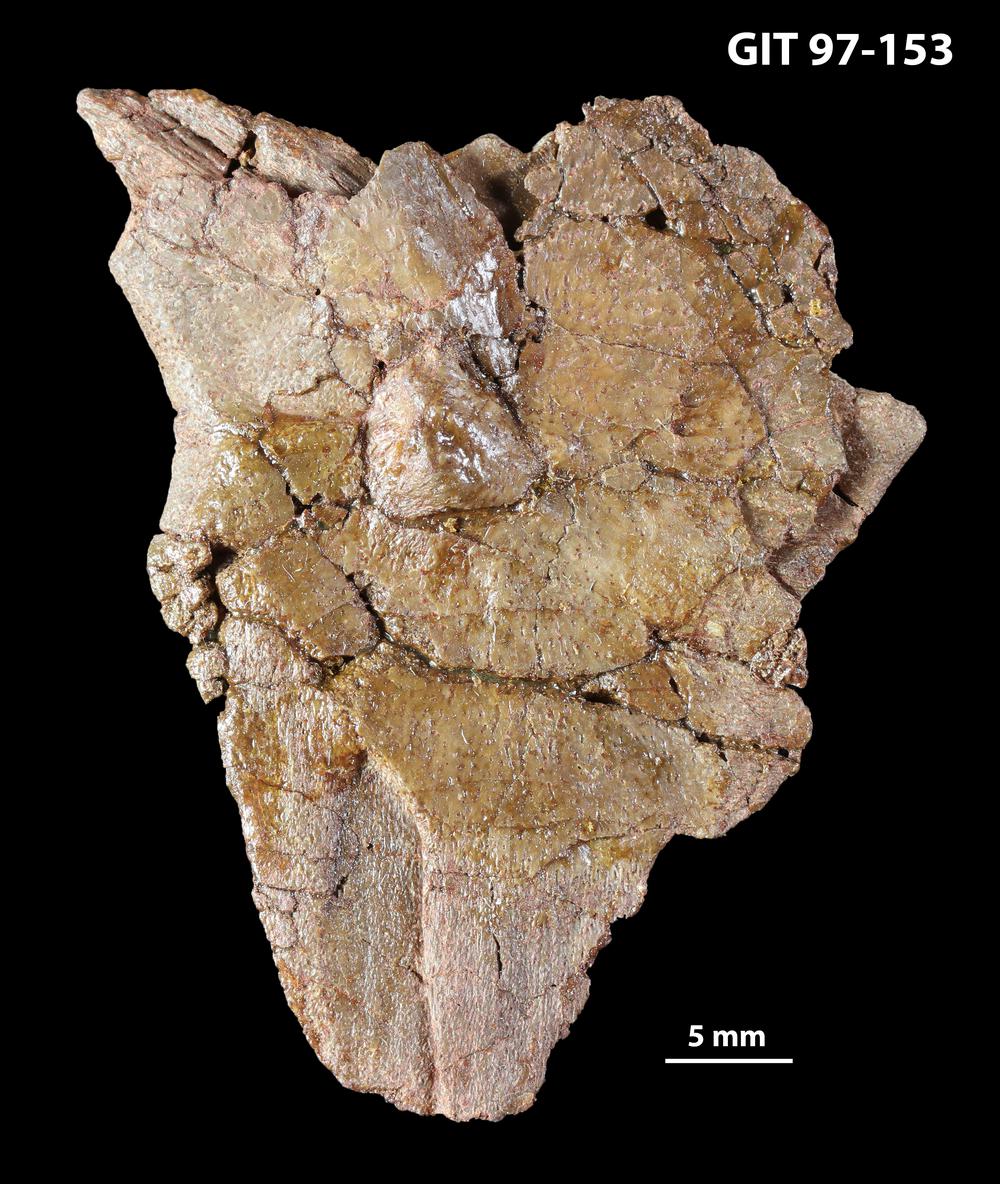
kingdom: Animalia
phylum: Chordata
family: Holonematidae
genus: Holonema
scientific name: Holonema
